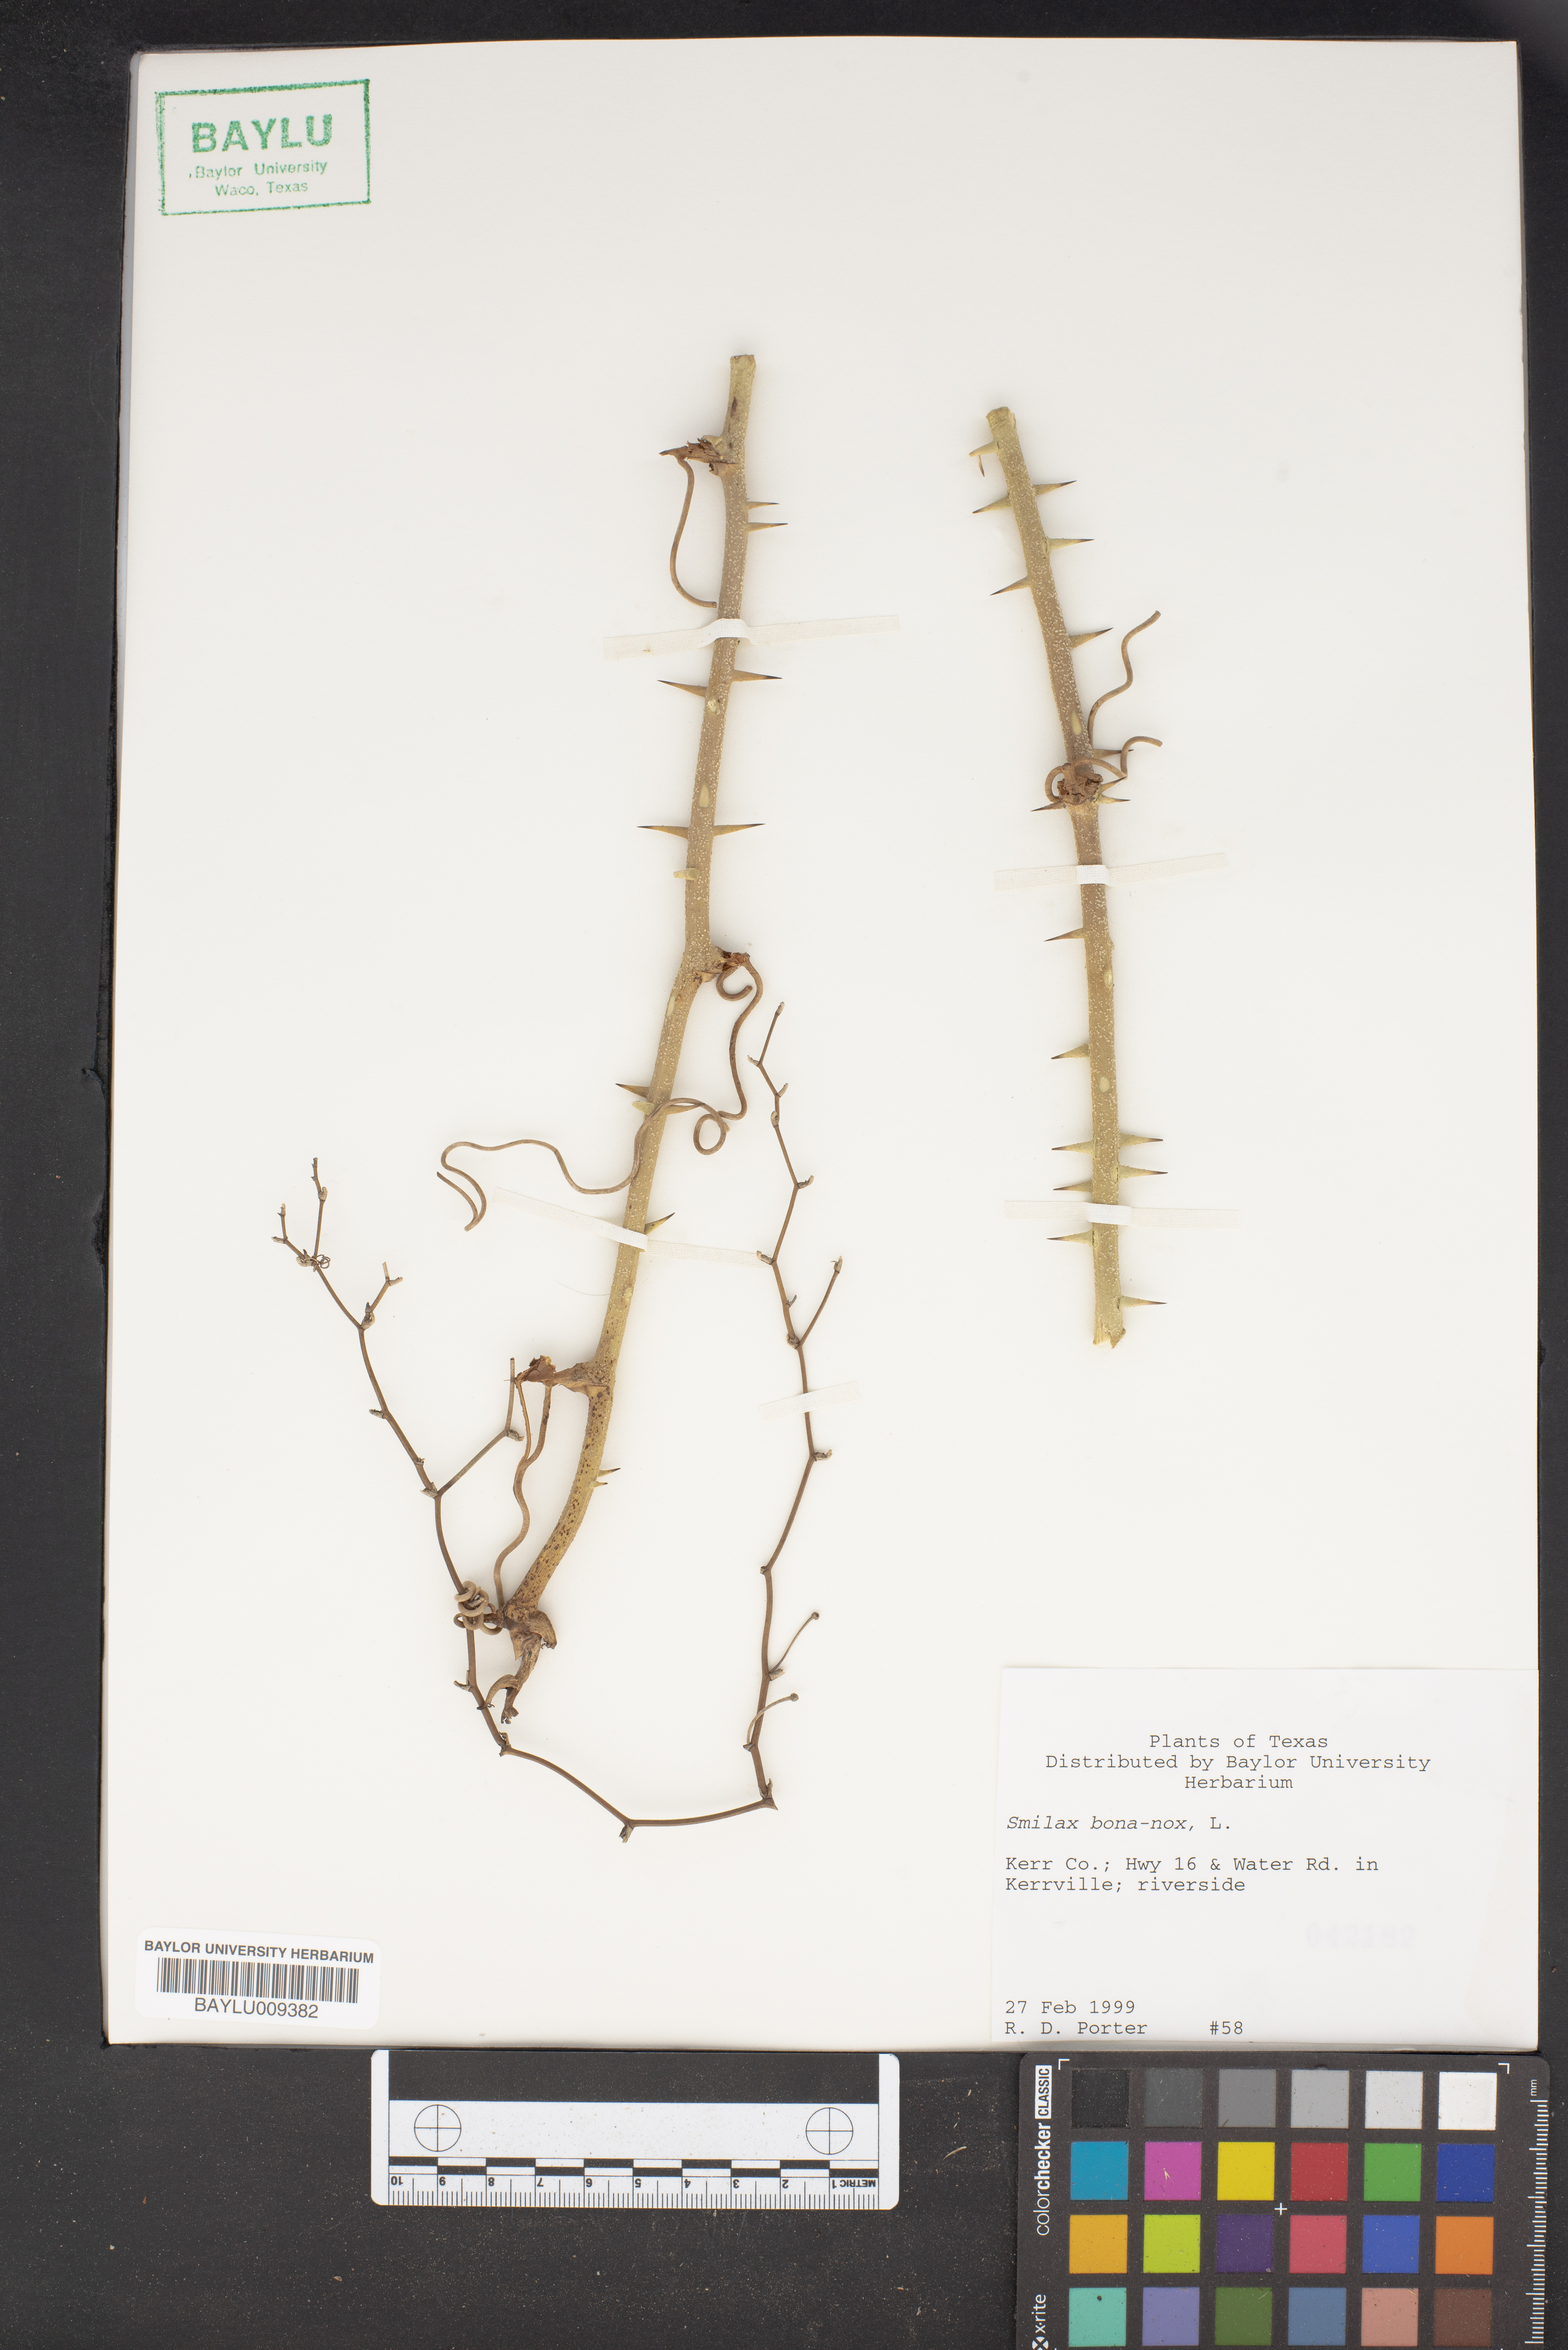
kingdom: Plantae
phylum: Tracheophyta
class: Liliopsida
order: Liliales
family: Smilacaceae
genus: Smilax
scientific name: Smilax bona-nox
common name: Catbrier
